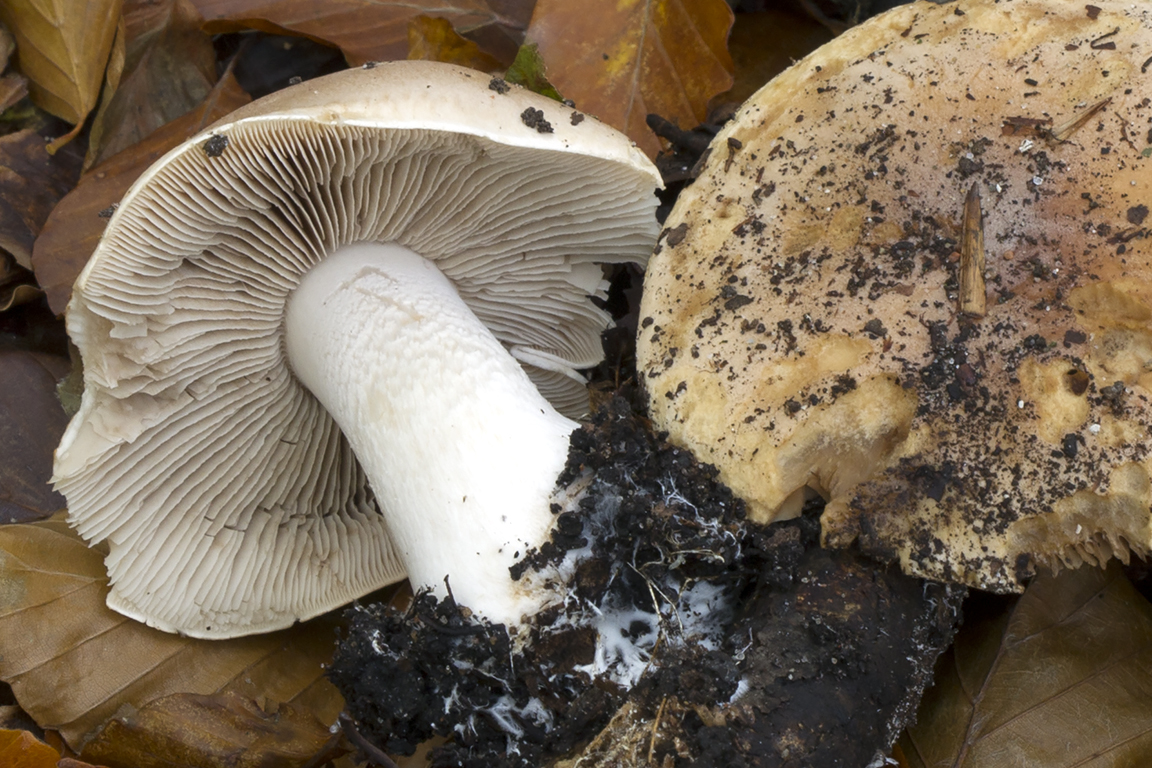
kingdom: Fungi
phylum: Basidiomycota
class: Agaricomycetes
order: Agaricales
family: Hymenogastraceae
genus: Hebeloma
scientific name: Hebeloma sinapizans
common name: ræddike-tåreblad
